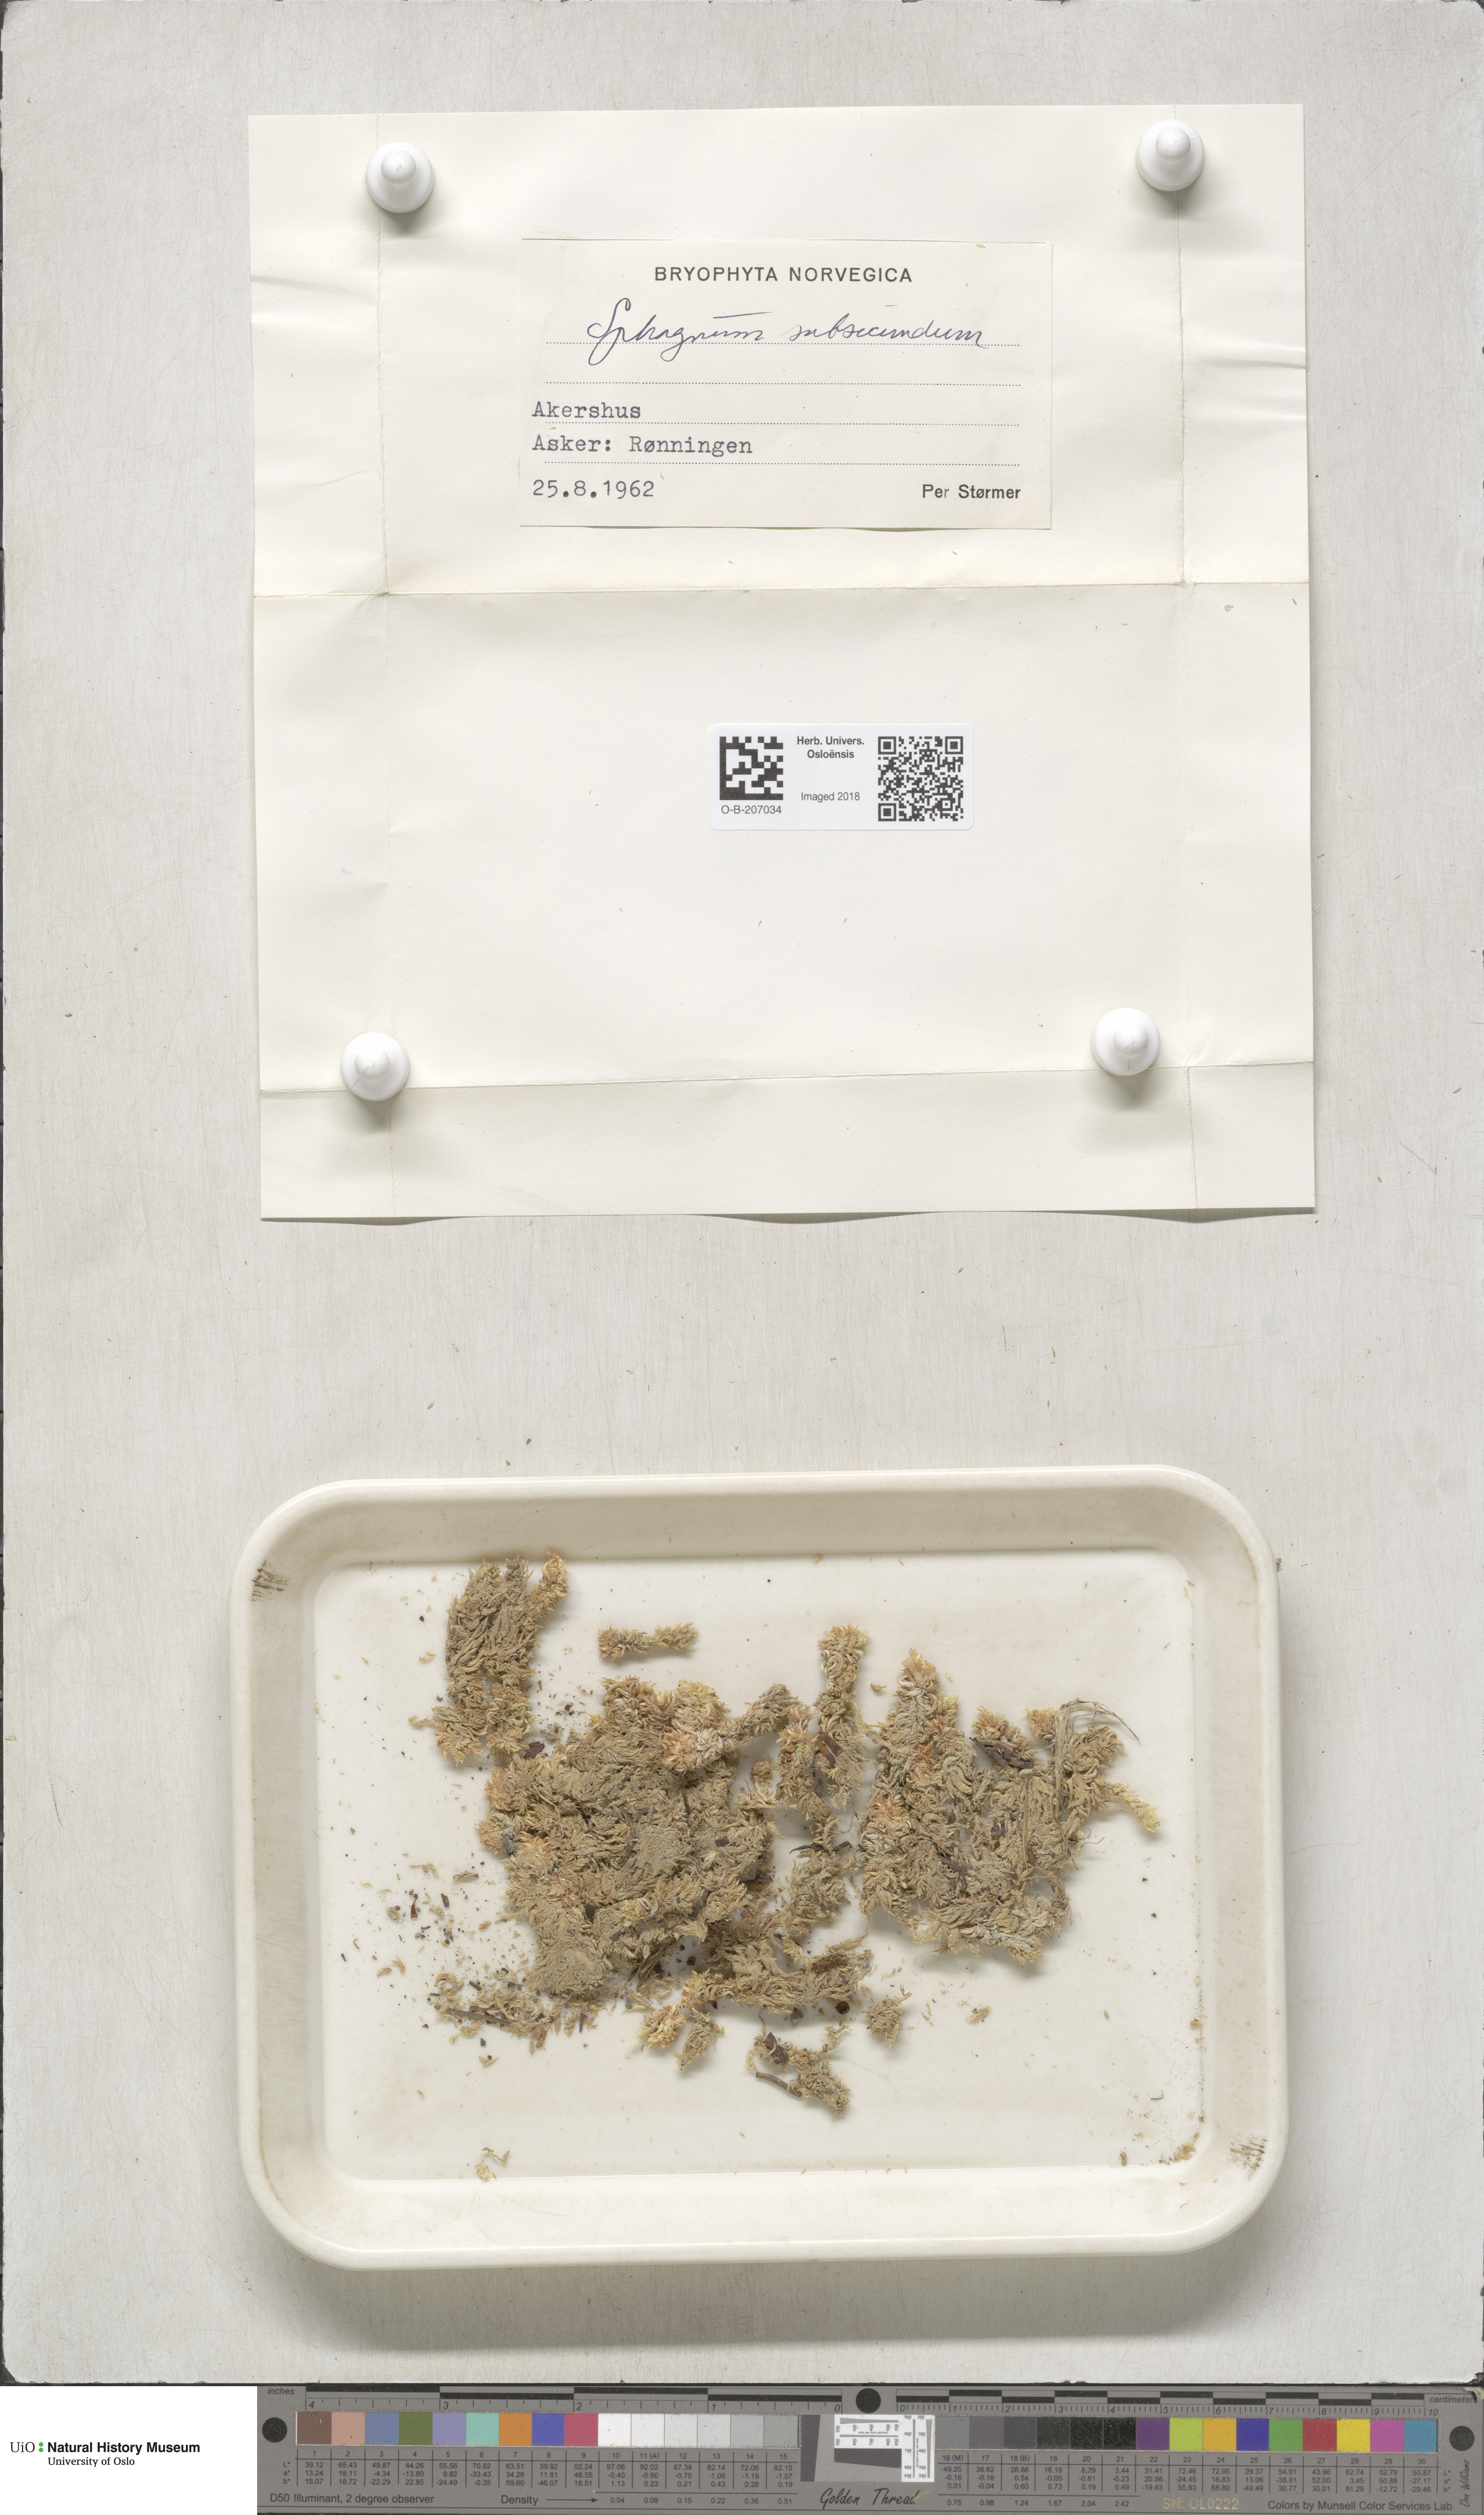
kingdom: Plantae
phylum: Bryophyta
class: Sphagnopsida
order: Sphagnales
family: Sphagnaceae
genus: Sphagnum
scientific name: Sphagnum subsecundum
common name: Orange peat moss
